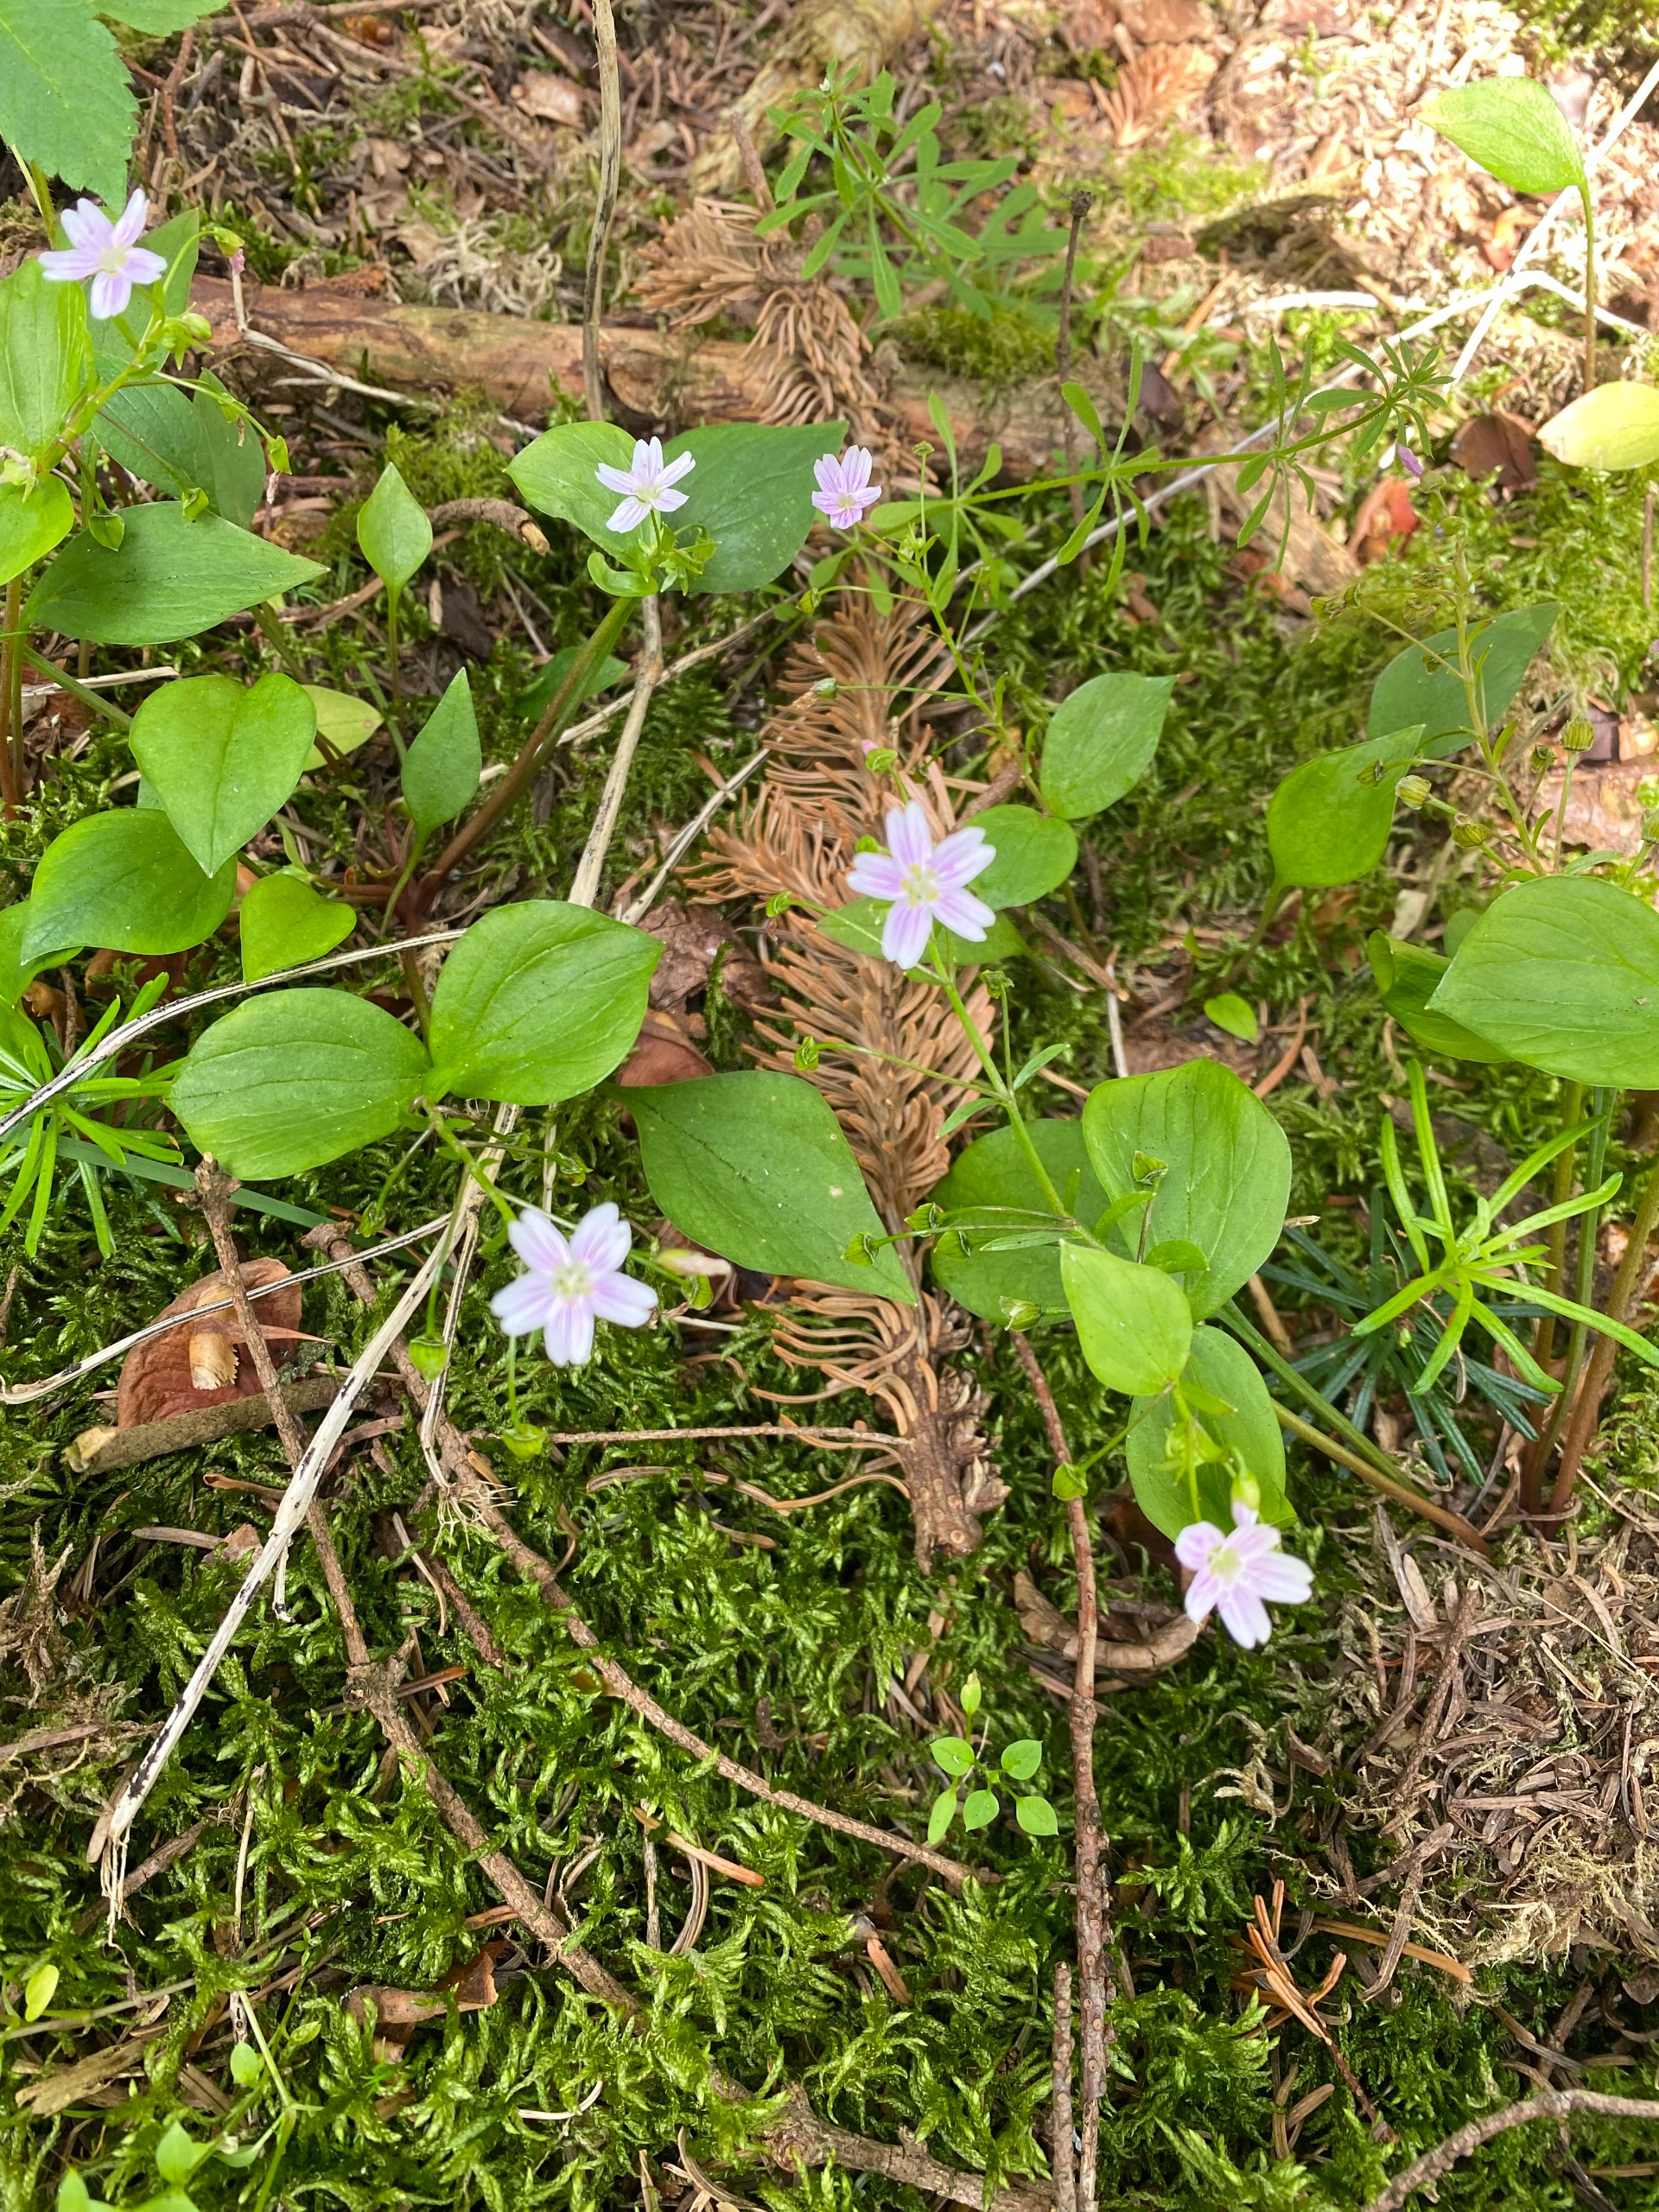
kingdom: Plantae
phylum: Tracheophyta
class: Magnoliopsida
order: Caryophyllales
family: Montiaceae
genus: Claytonia
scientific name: Claytonia sibirica
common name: Sibirisk vinterportulak
